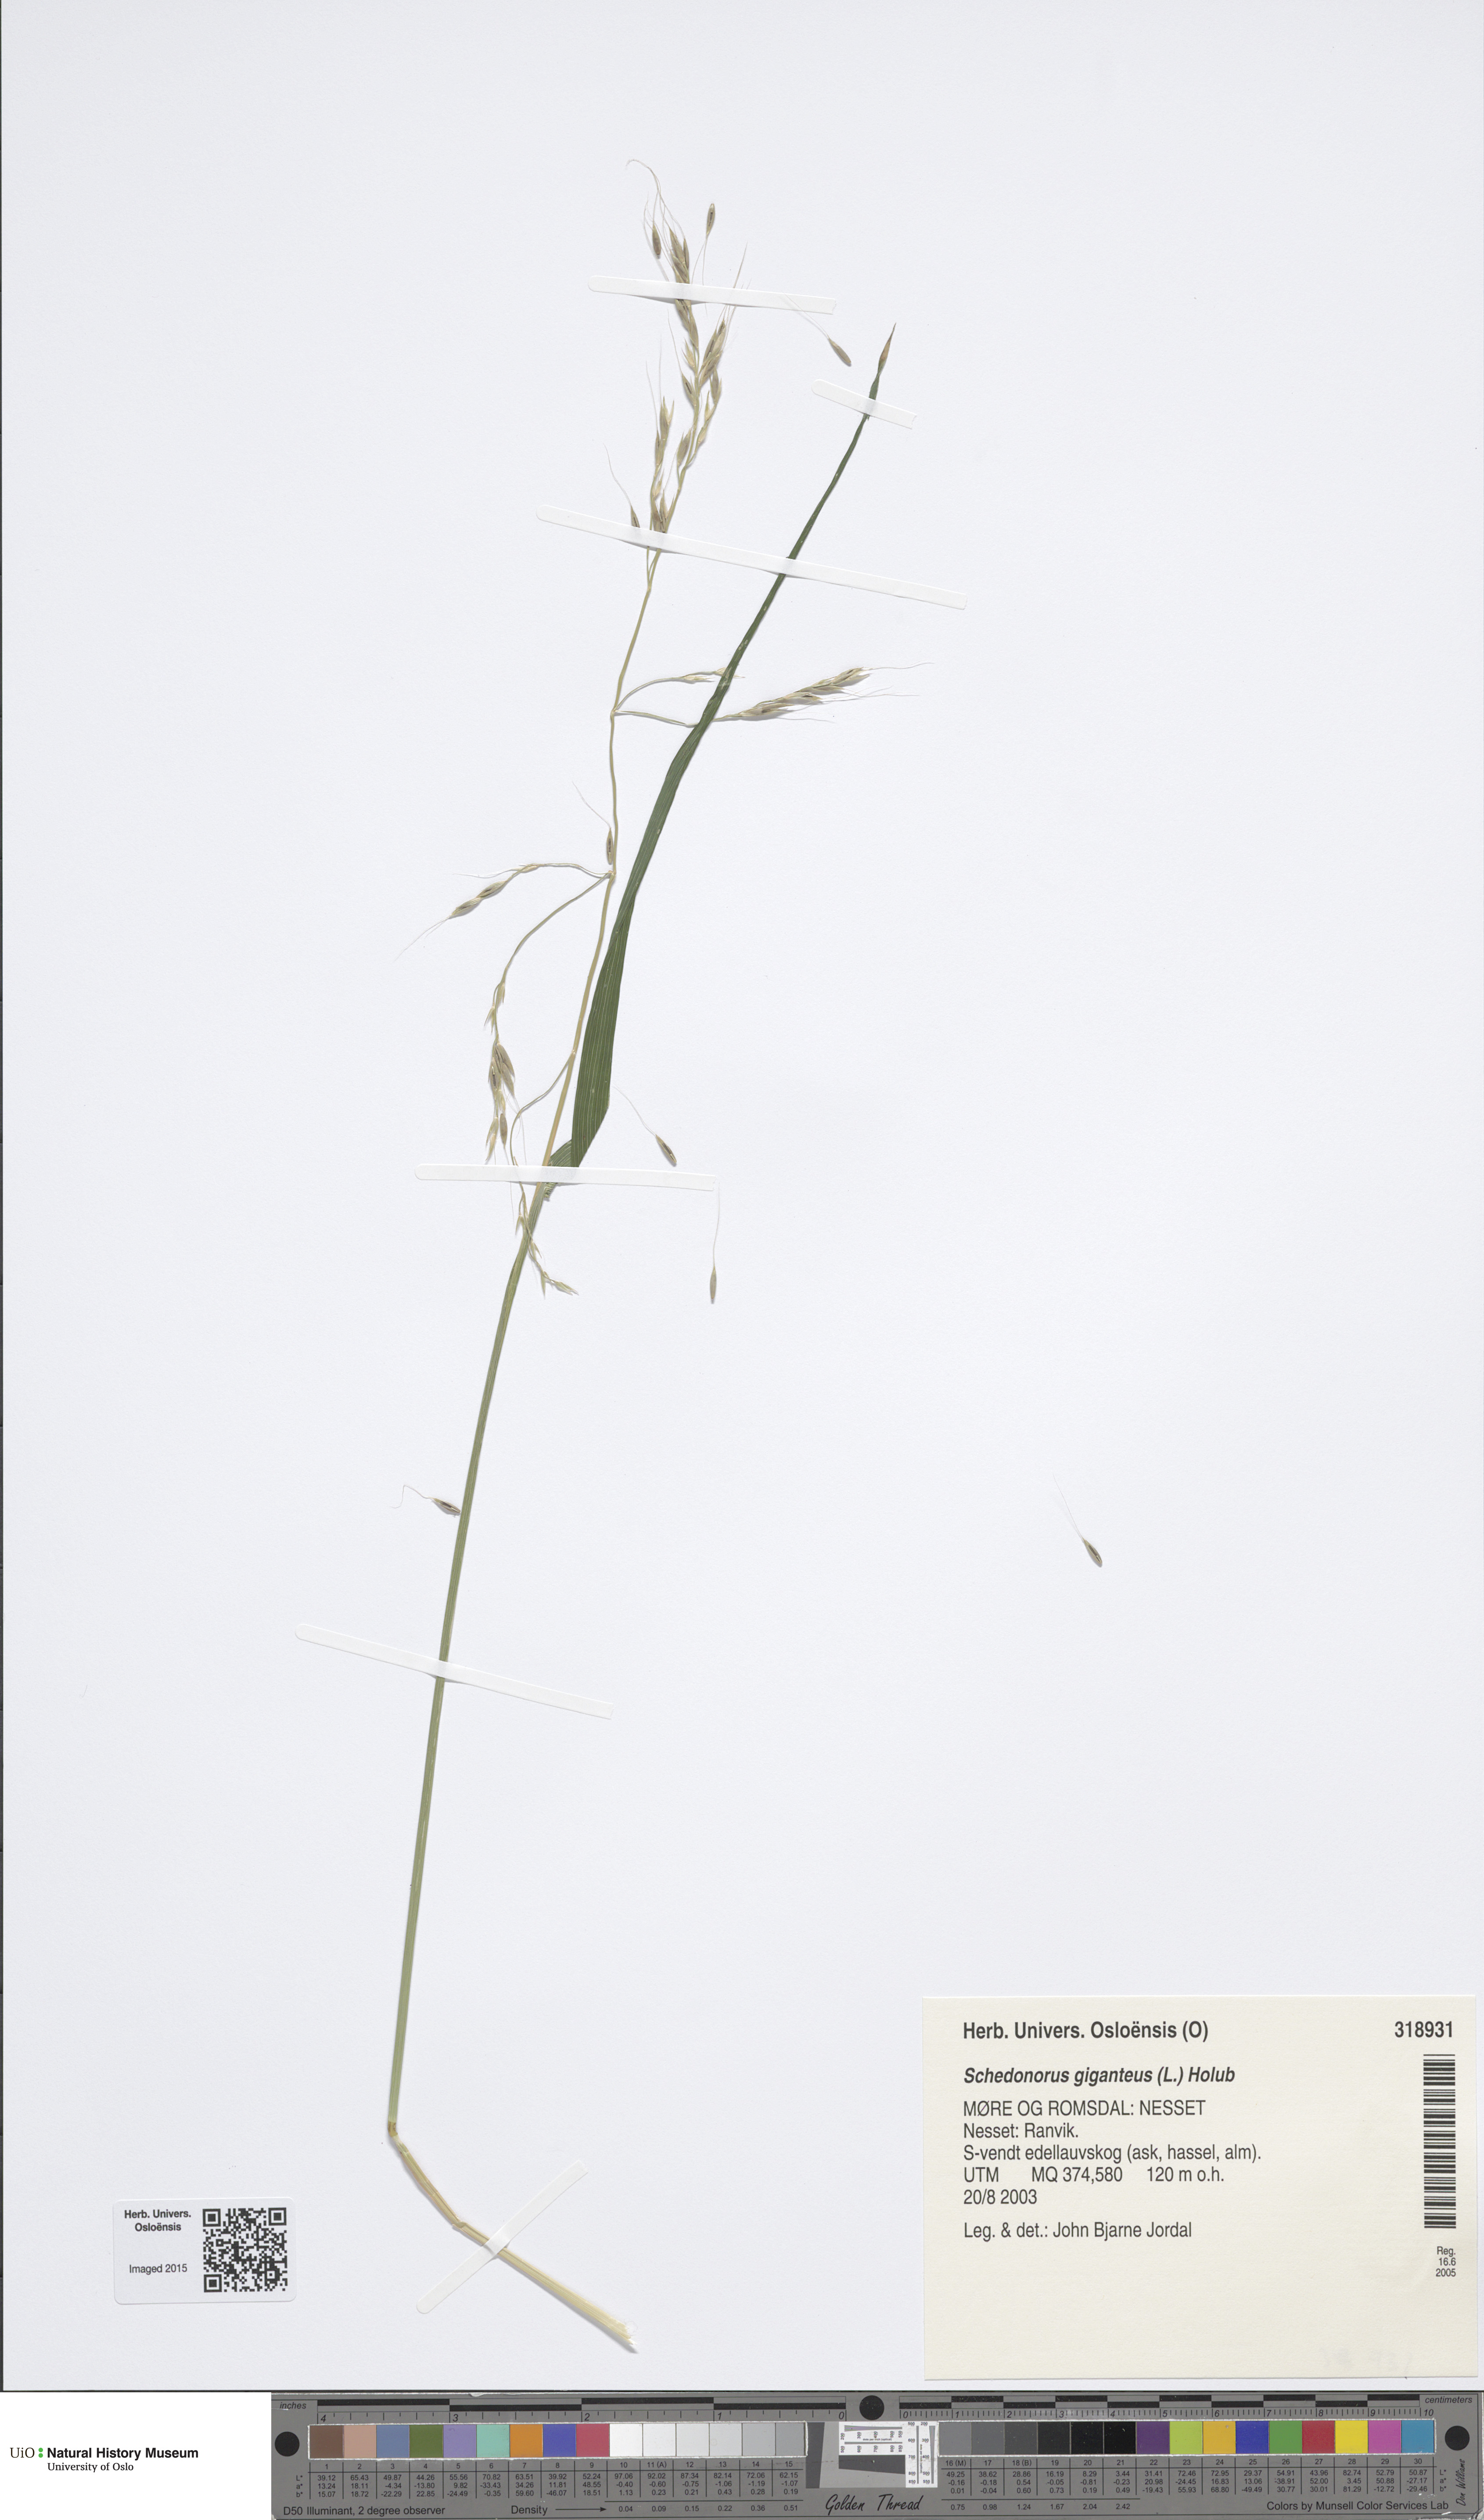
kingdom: Plantae
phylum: Tracheophyta
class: Liliopsida
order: Poales
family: Poaceae
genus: Lolium
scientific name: Lolium giganteum
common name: Giant fescue
